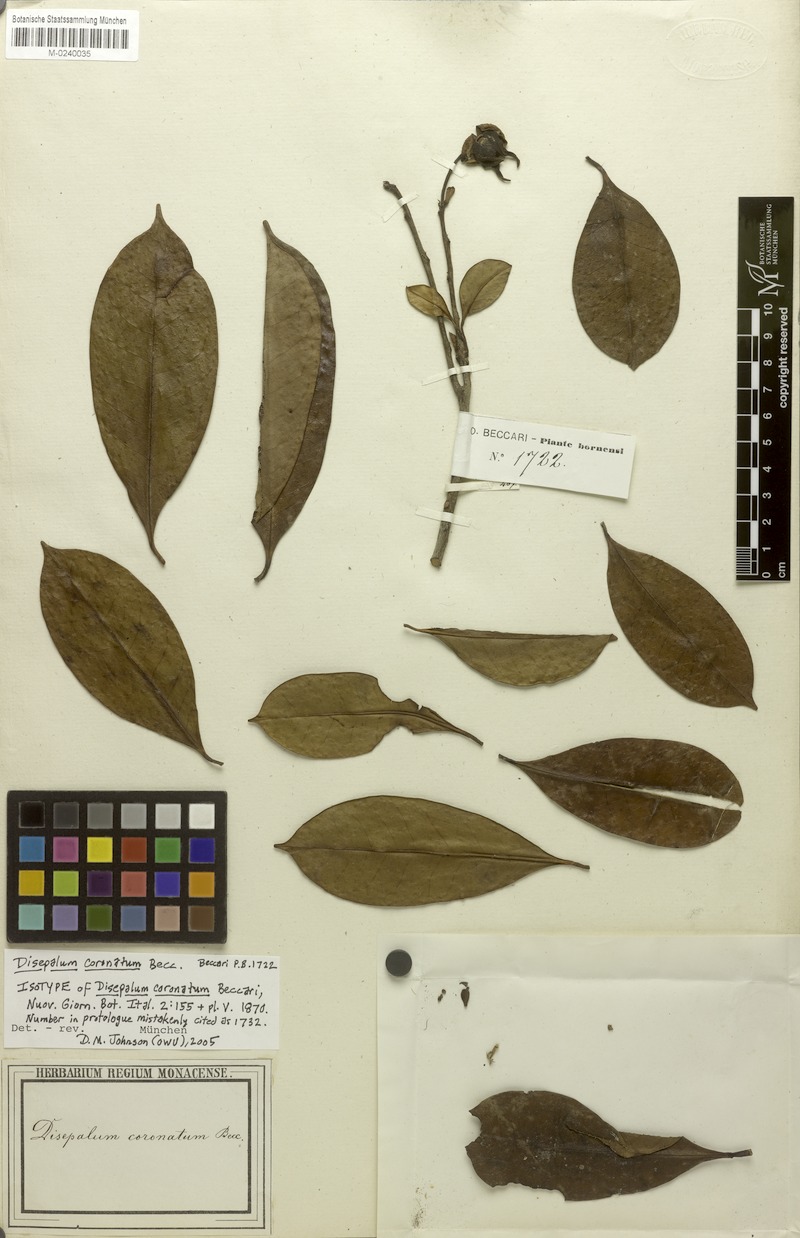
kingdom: Plantae
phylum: Tracheophyta
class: Magnoliopsida
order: Magnoliales
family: Annonaceae
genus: Disepalum
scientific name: Disepalum coronatum
